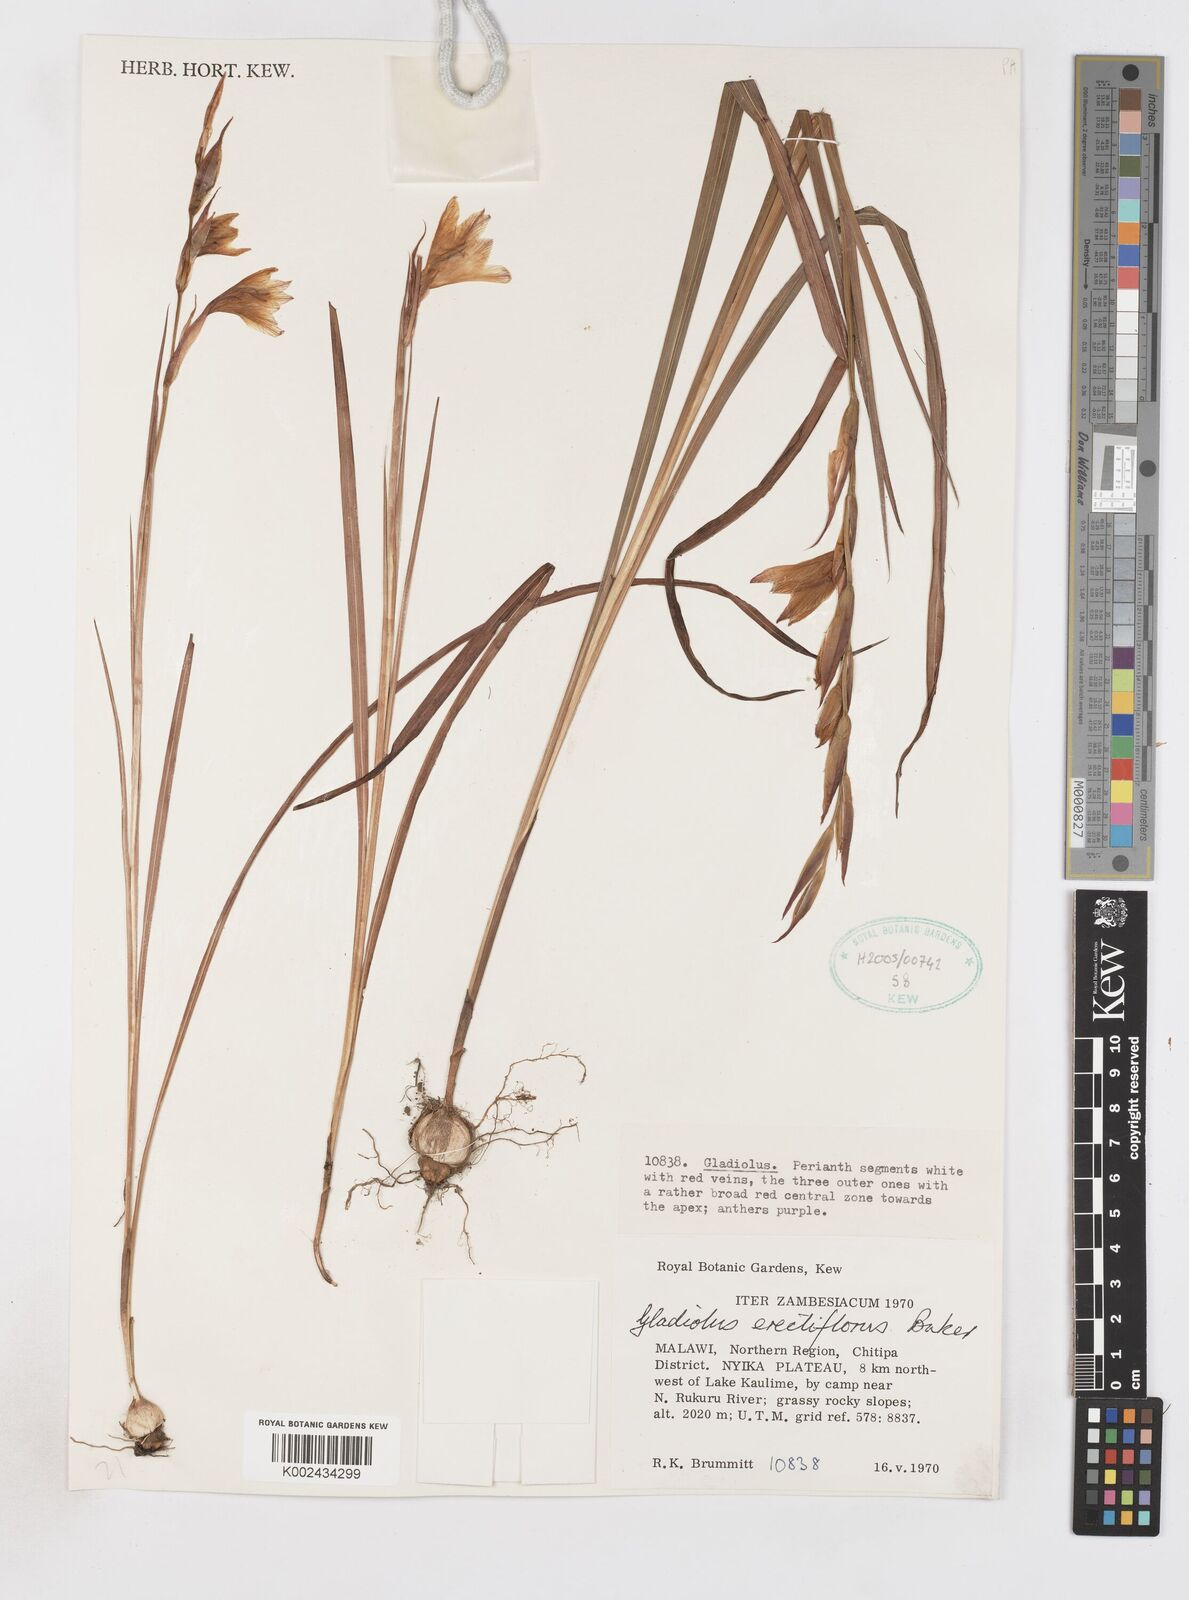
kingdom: Plantae
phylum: Tracheophyta
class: Liliopsida
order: Asparagales
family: Iridaceae
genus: Gladiolus
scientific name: Gladiolus erectiflorus
